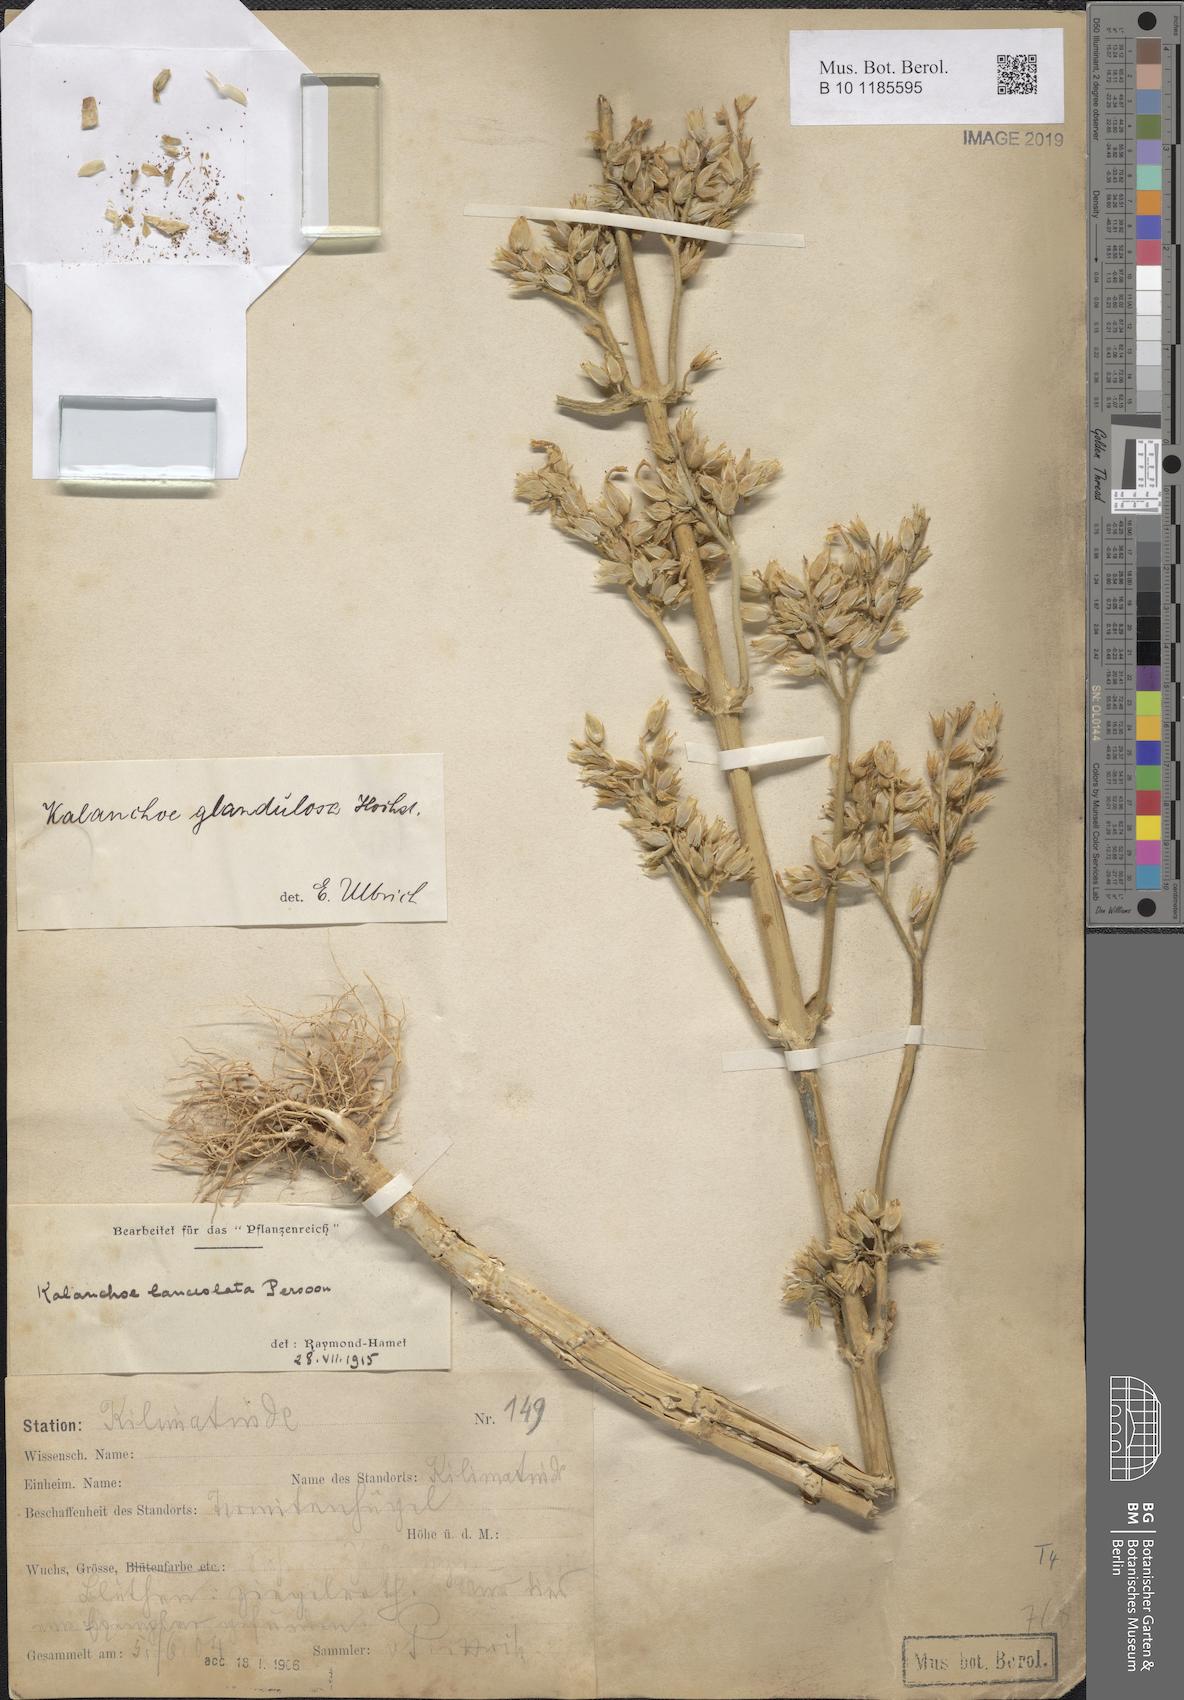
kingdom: Plantae
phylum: Tracheophyta
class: Magnoliopsida
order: Saxifragales
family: Crassulaceae
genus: Kalanchoe
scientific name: Kalanchoe lanceolata
